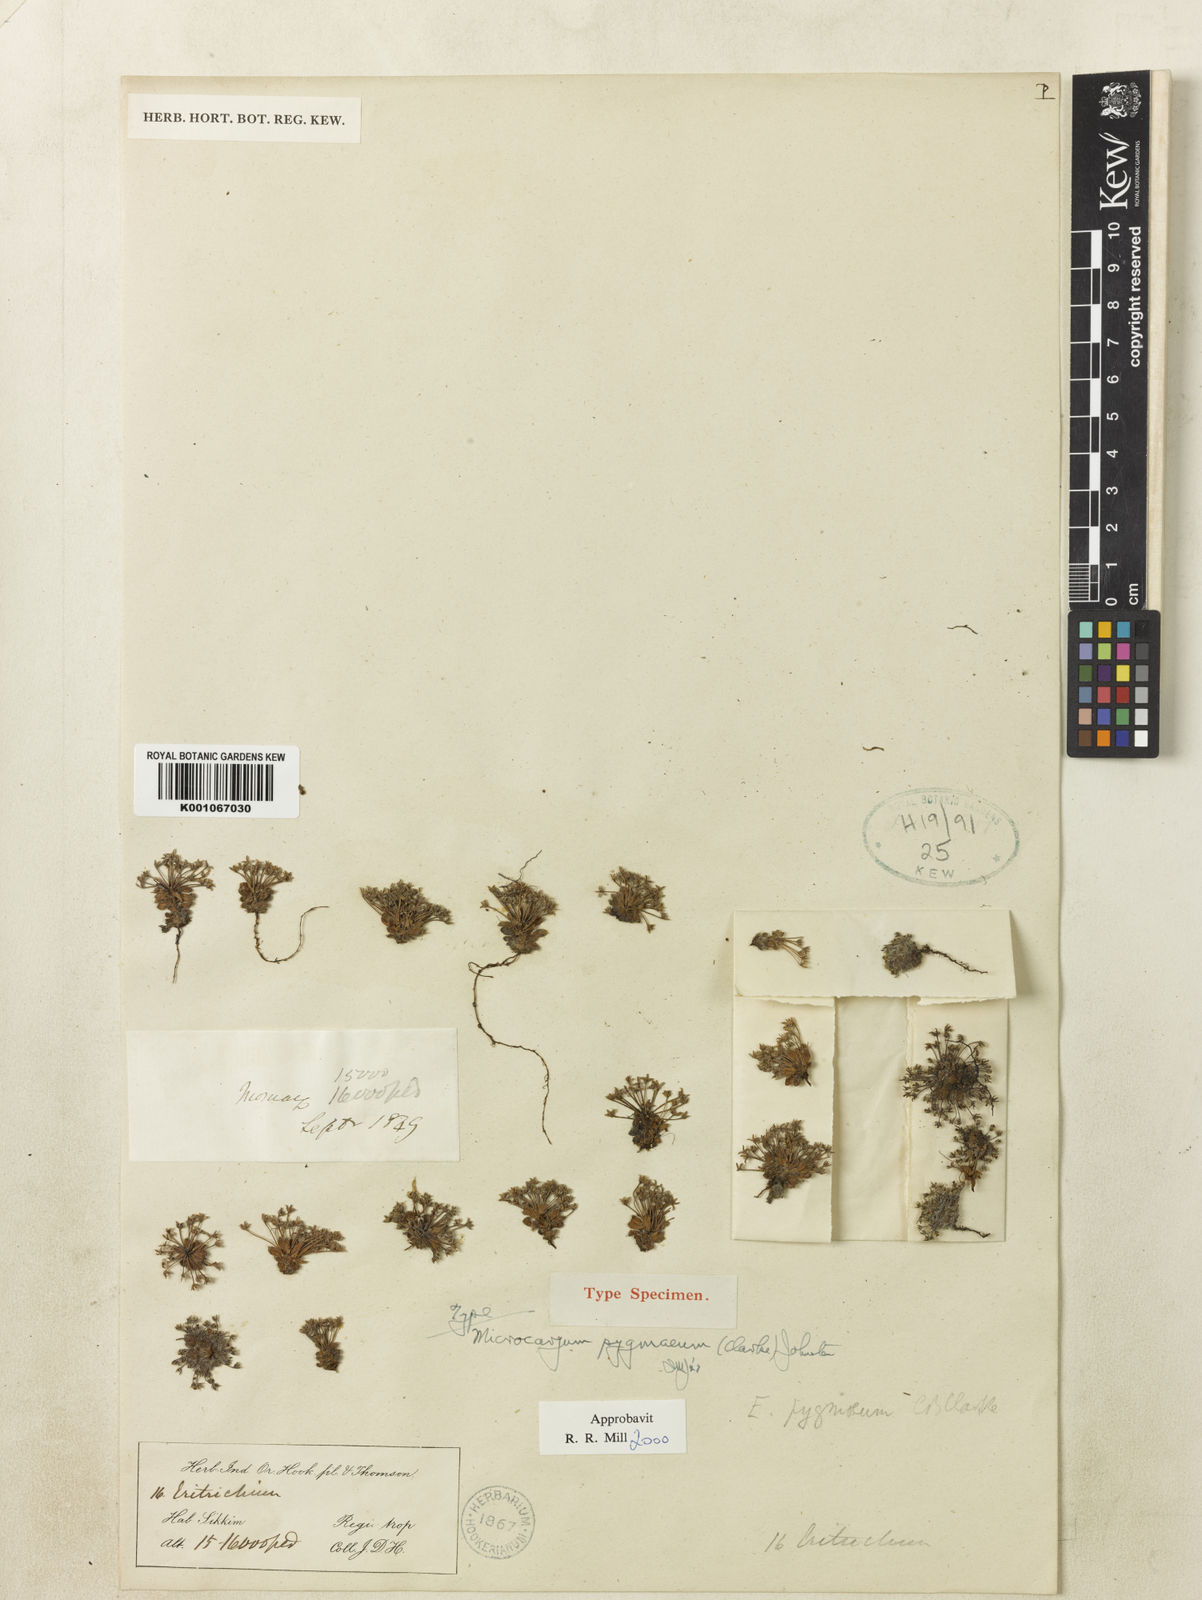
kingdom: Plantae
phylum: Tracheophyta
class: Magnoliopsida
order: Boraginales
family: Boraginaceae
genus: Microcaryum
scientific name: Microcaryum pygmaeum
